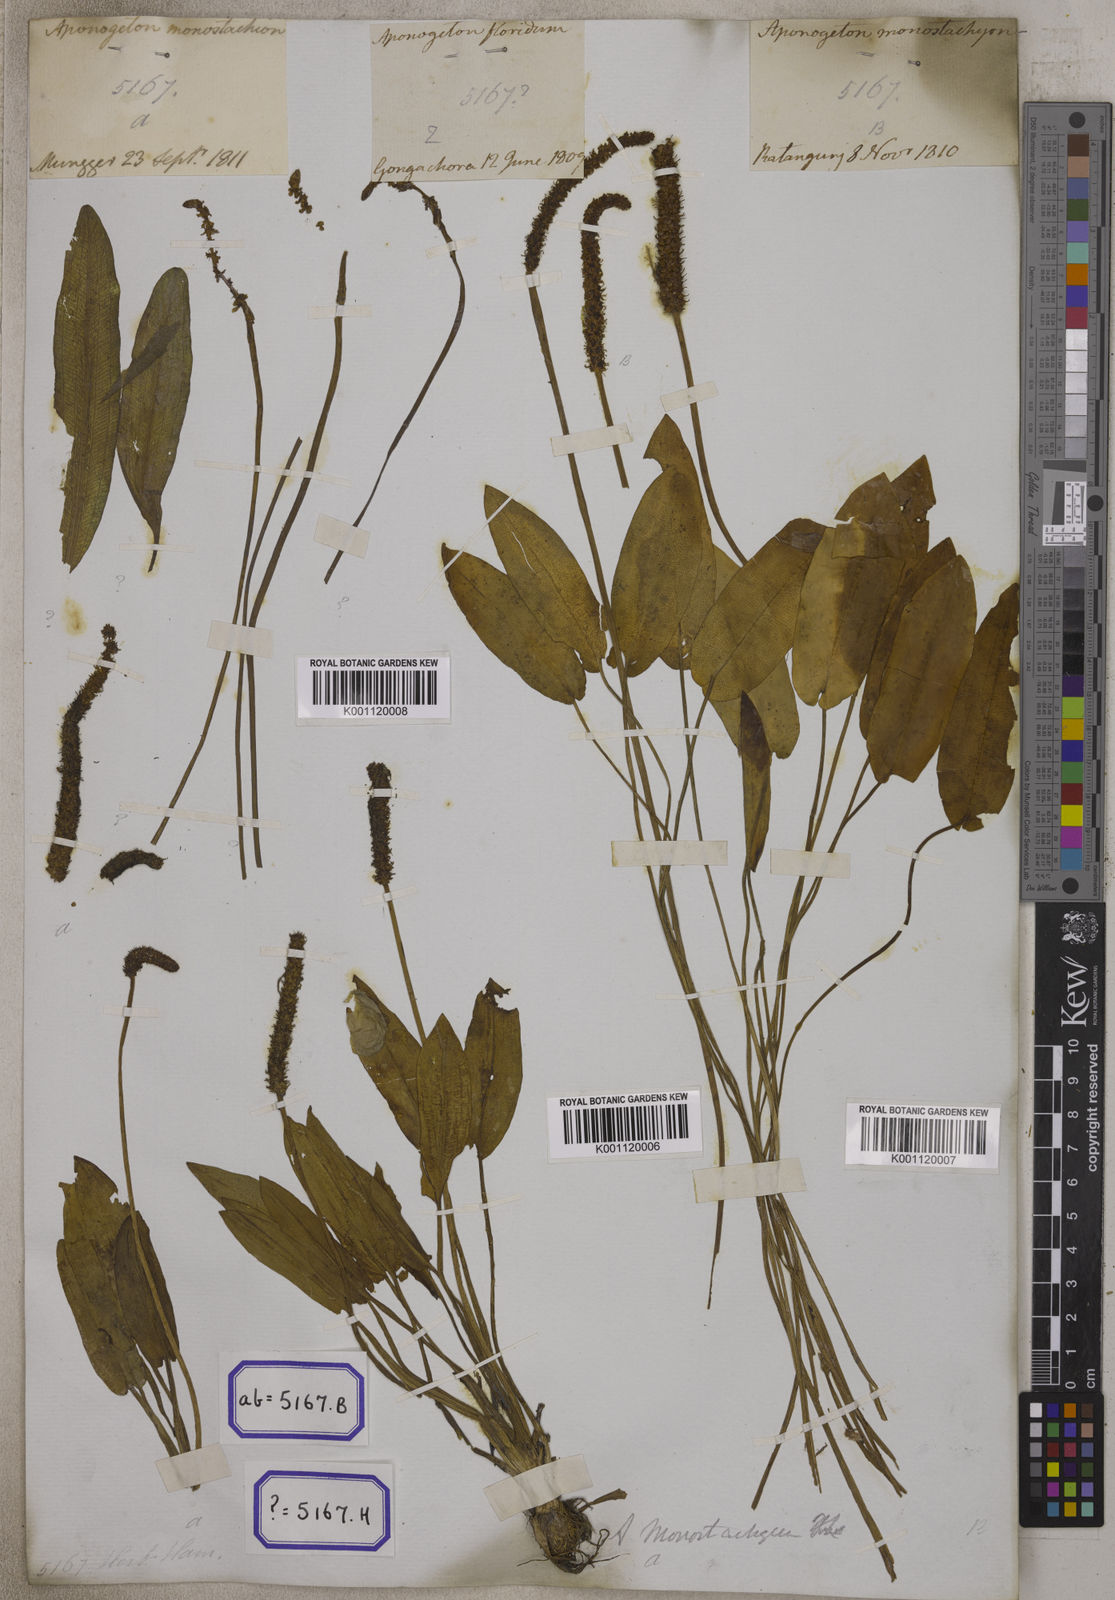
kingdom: Plantae
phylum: Tracheophyta
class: Liliopsida
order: Alismatales
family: Aponogetonaceae
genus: Aponogeton
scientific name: Aponogeton
